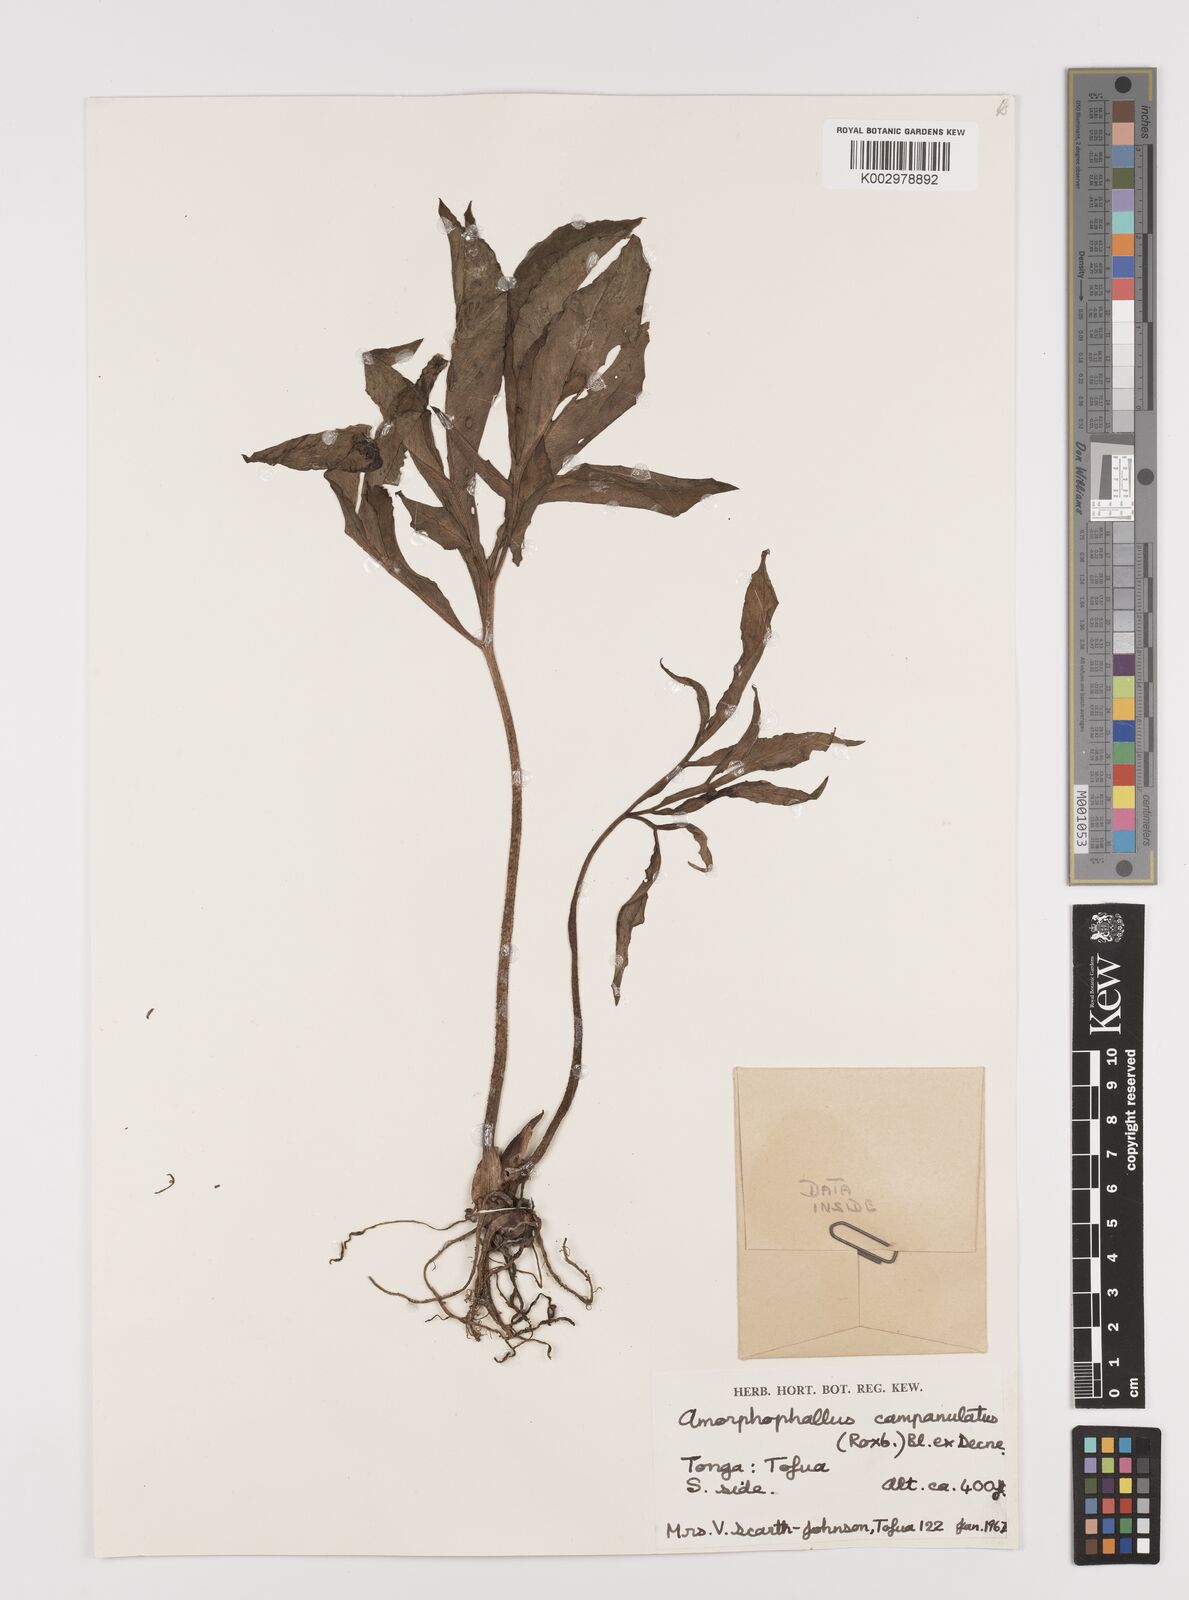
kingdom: Plantae
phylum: Tracheophyta
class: Liliopsida
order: Alismatales
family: Araceae
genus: Amorphophallus
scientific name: Amorphophallus paeoniifolius
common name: Telinga-potato
